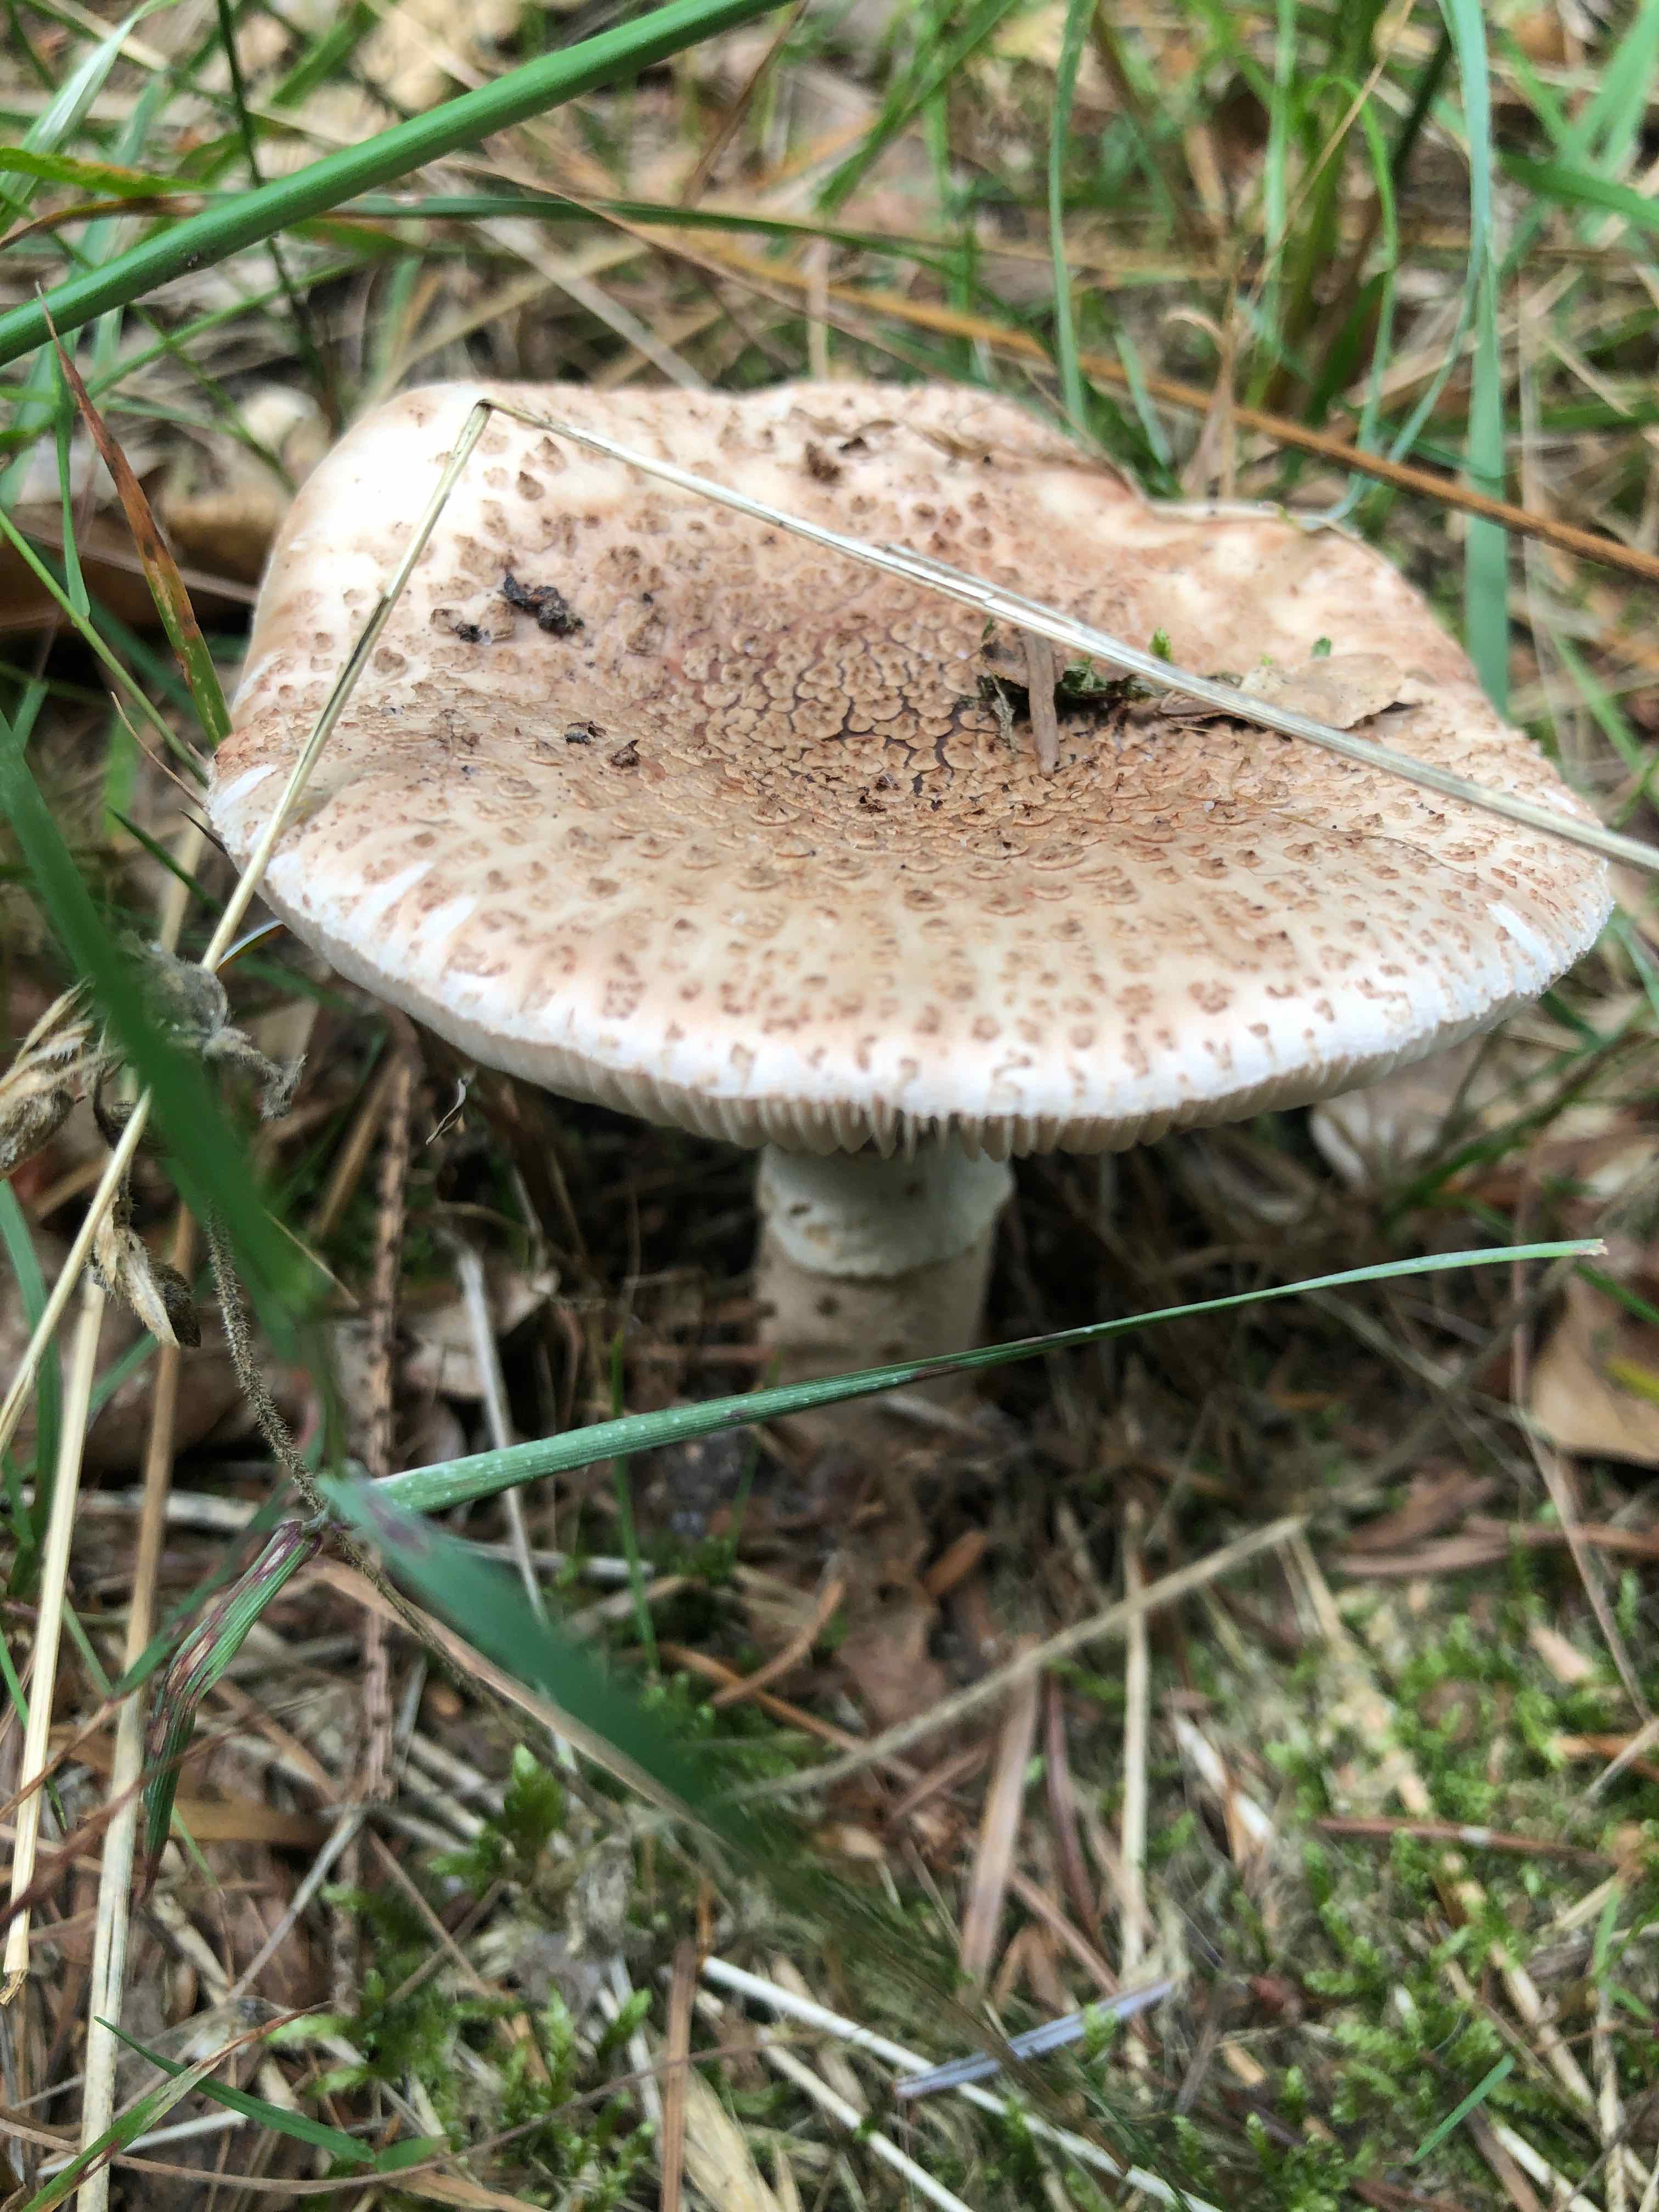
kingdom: Fungi
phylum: Basidiomycota
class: Agaricomycetes
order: Agaricales
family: Amanitaceae
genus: Amanita
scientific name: Amanita rubescens
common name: rødmende fluesvamp
